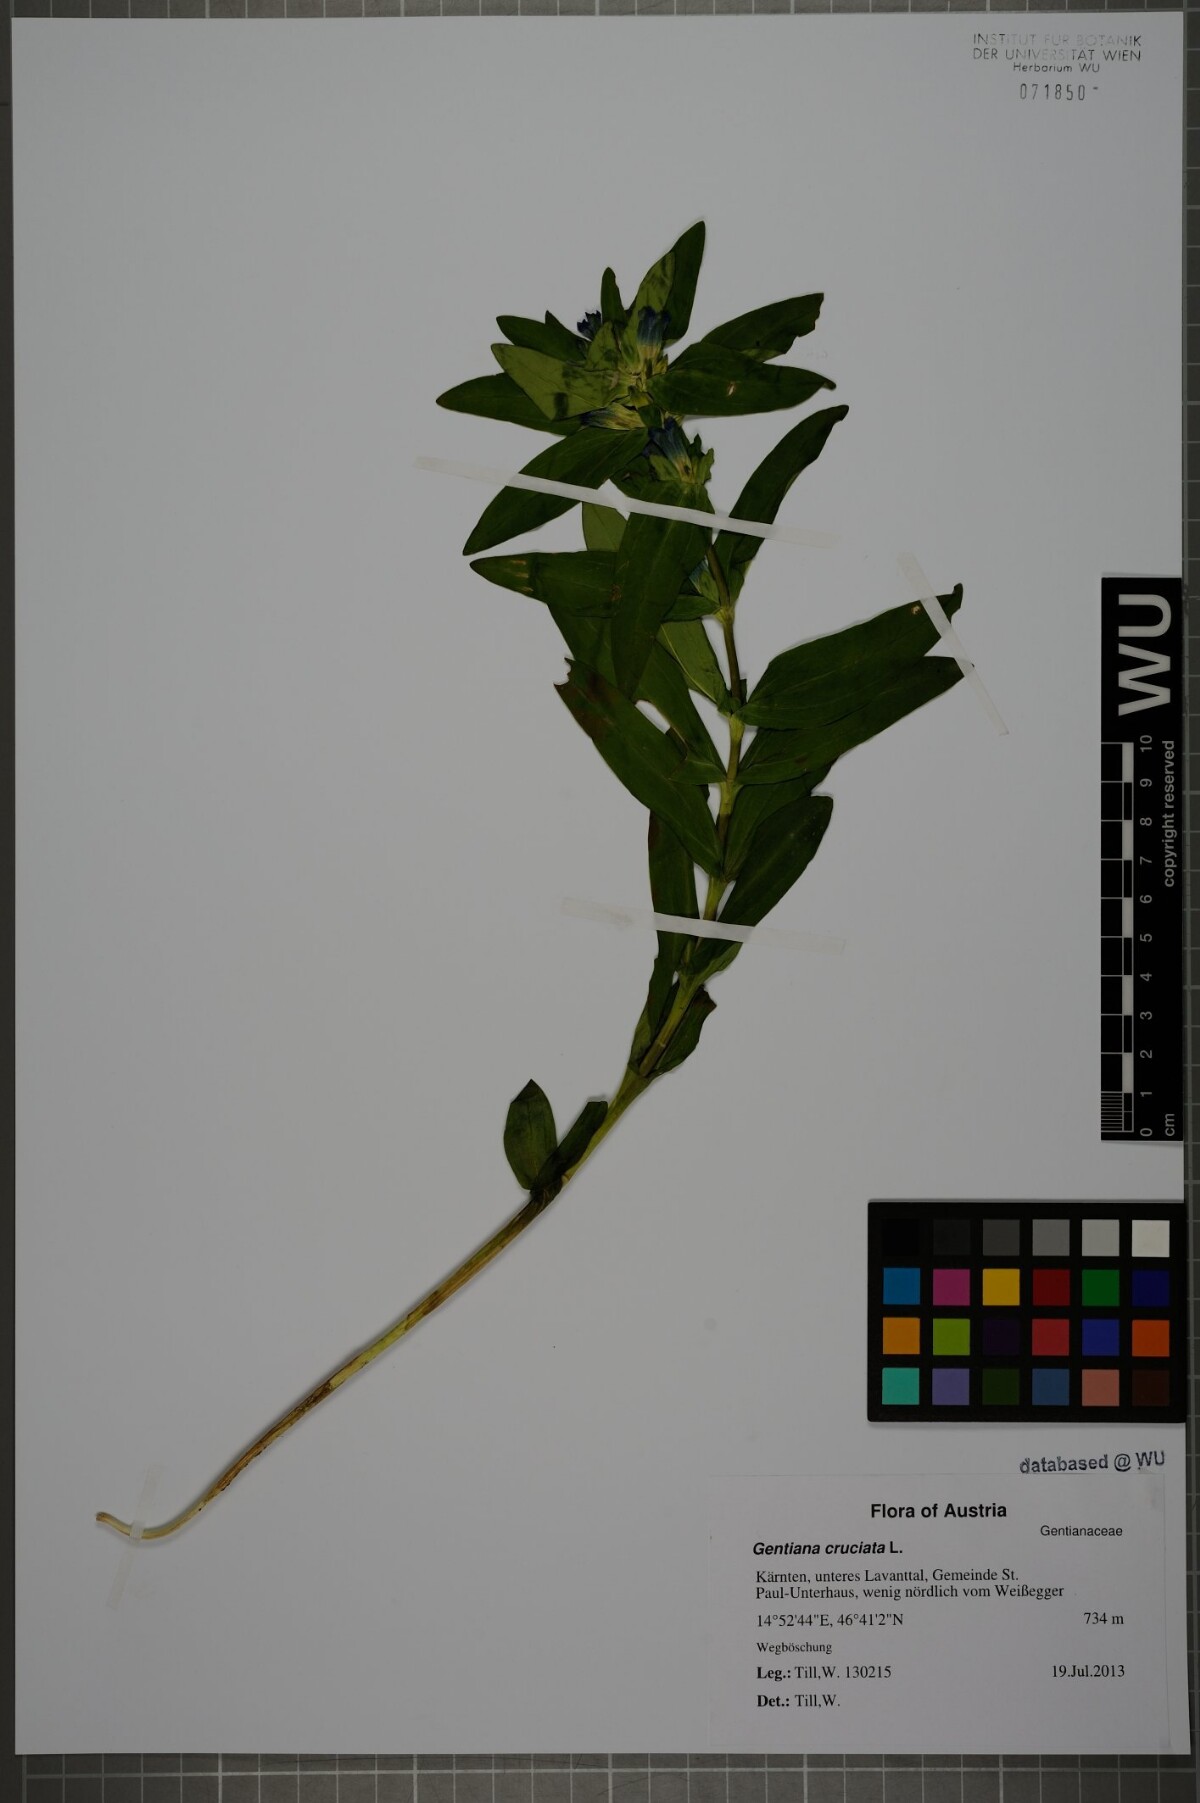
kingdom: Plantae
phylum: Tracheophyta
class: Magnoliopsida
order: Gentianales
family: Gentianaceae
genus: Gentiana
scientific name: Gentiana cruciata
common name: Cross gentian
